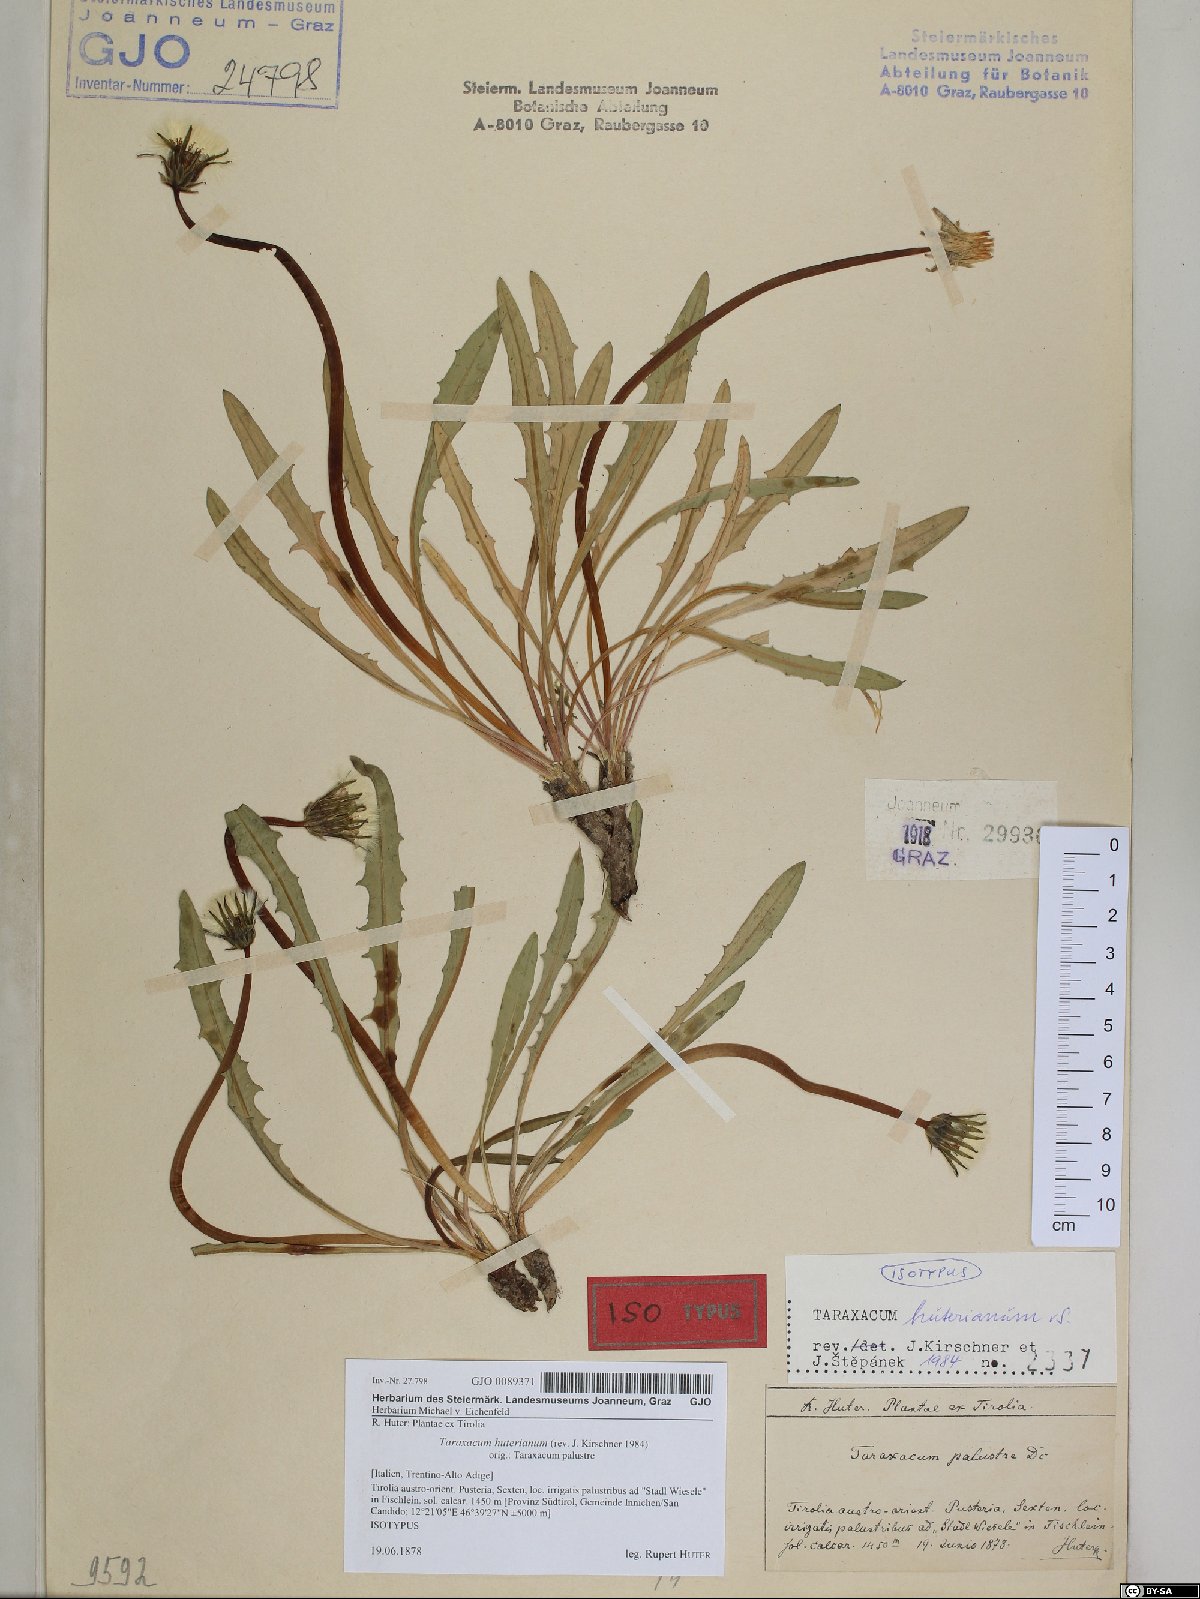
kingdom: Plantae
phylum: Tracheophyta
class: Magnoliopsida
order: Asterales
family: Asteraceae
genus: Taraxacum
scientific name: Taraxacum huterianum
